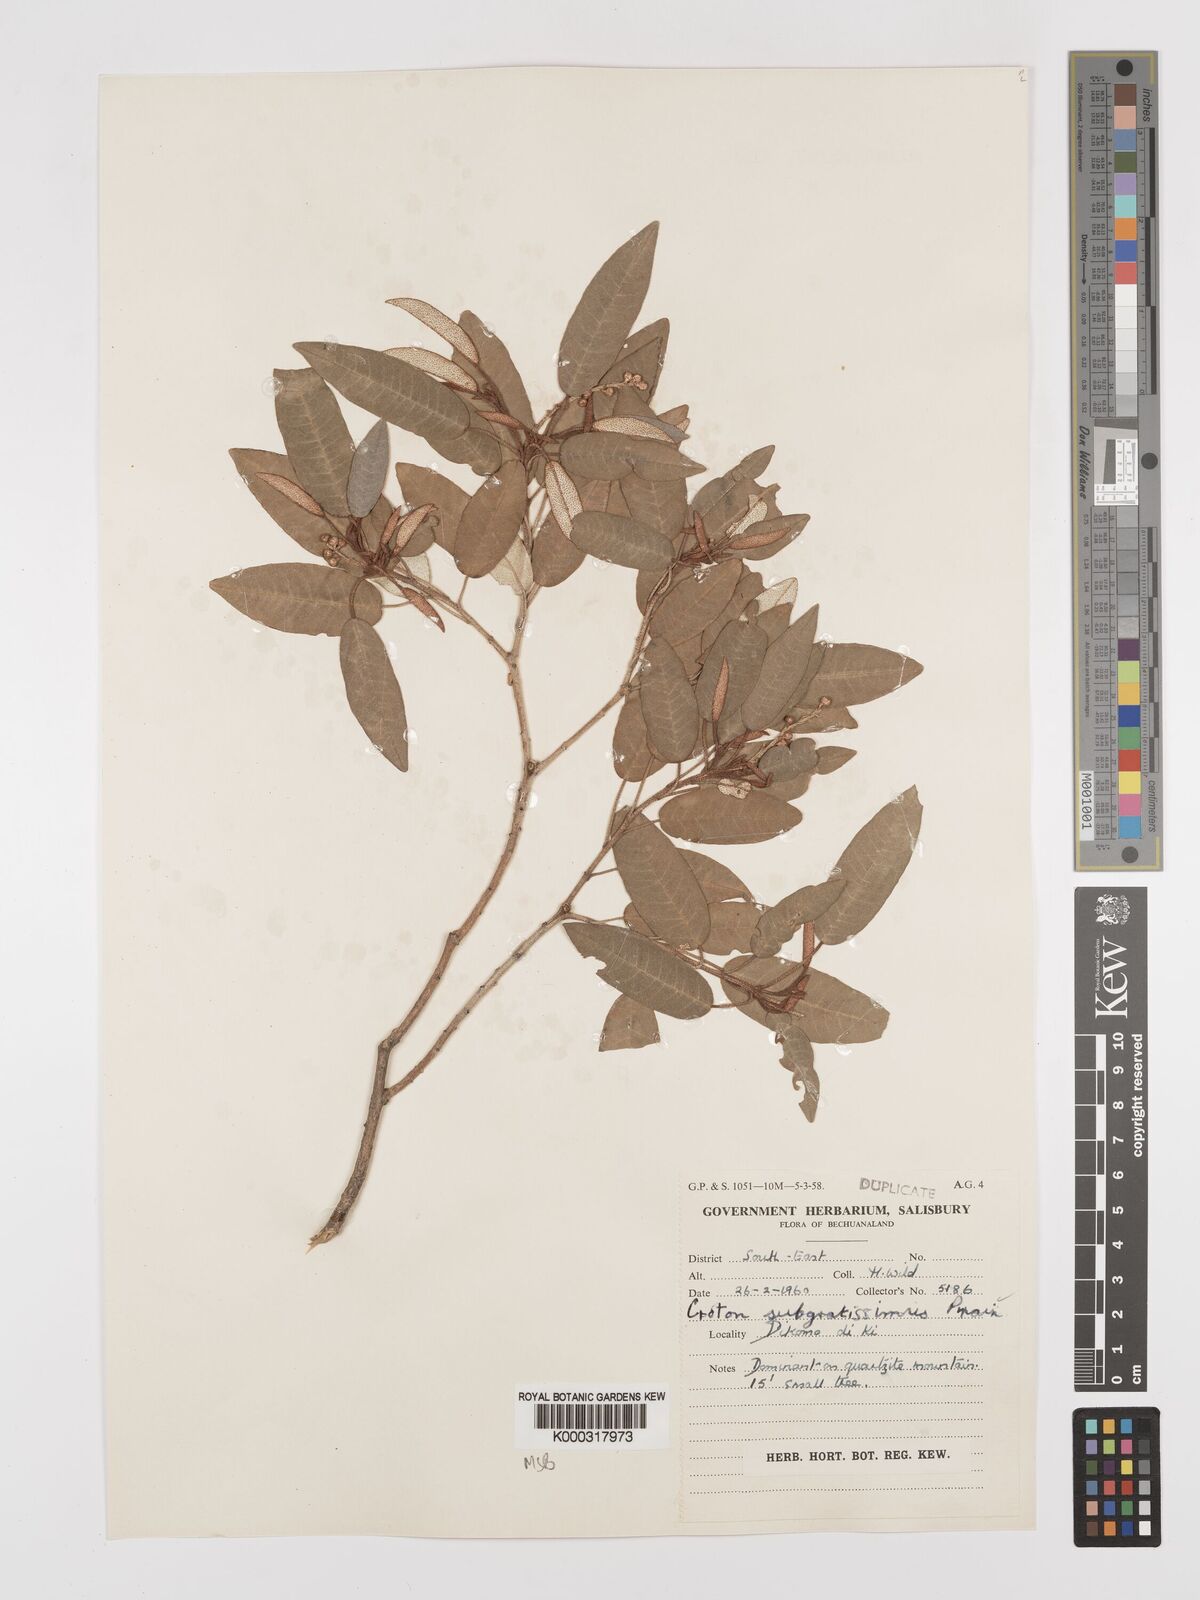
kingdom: Plantae
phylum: Tracheophyta
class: Magnoliopsida
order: Malpighiales
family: Euphorbiaceae
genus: Croton
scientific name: Croton gratissimus
